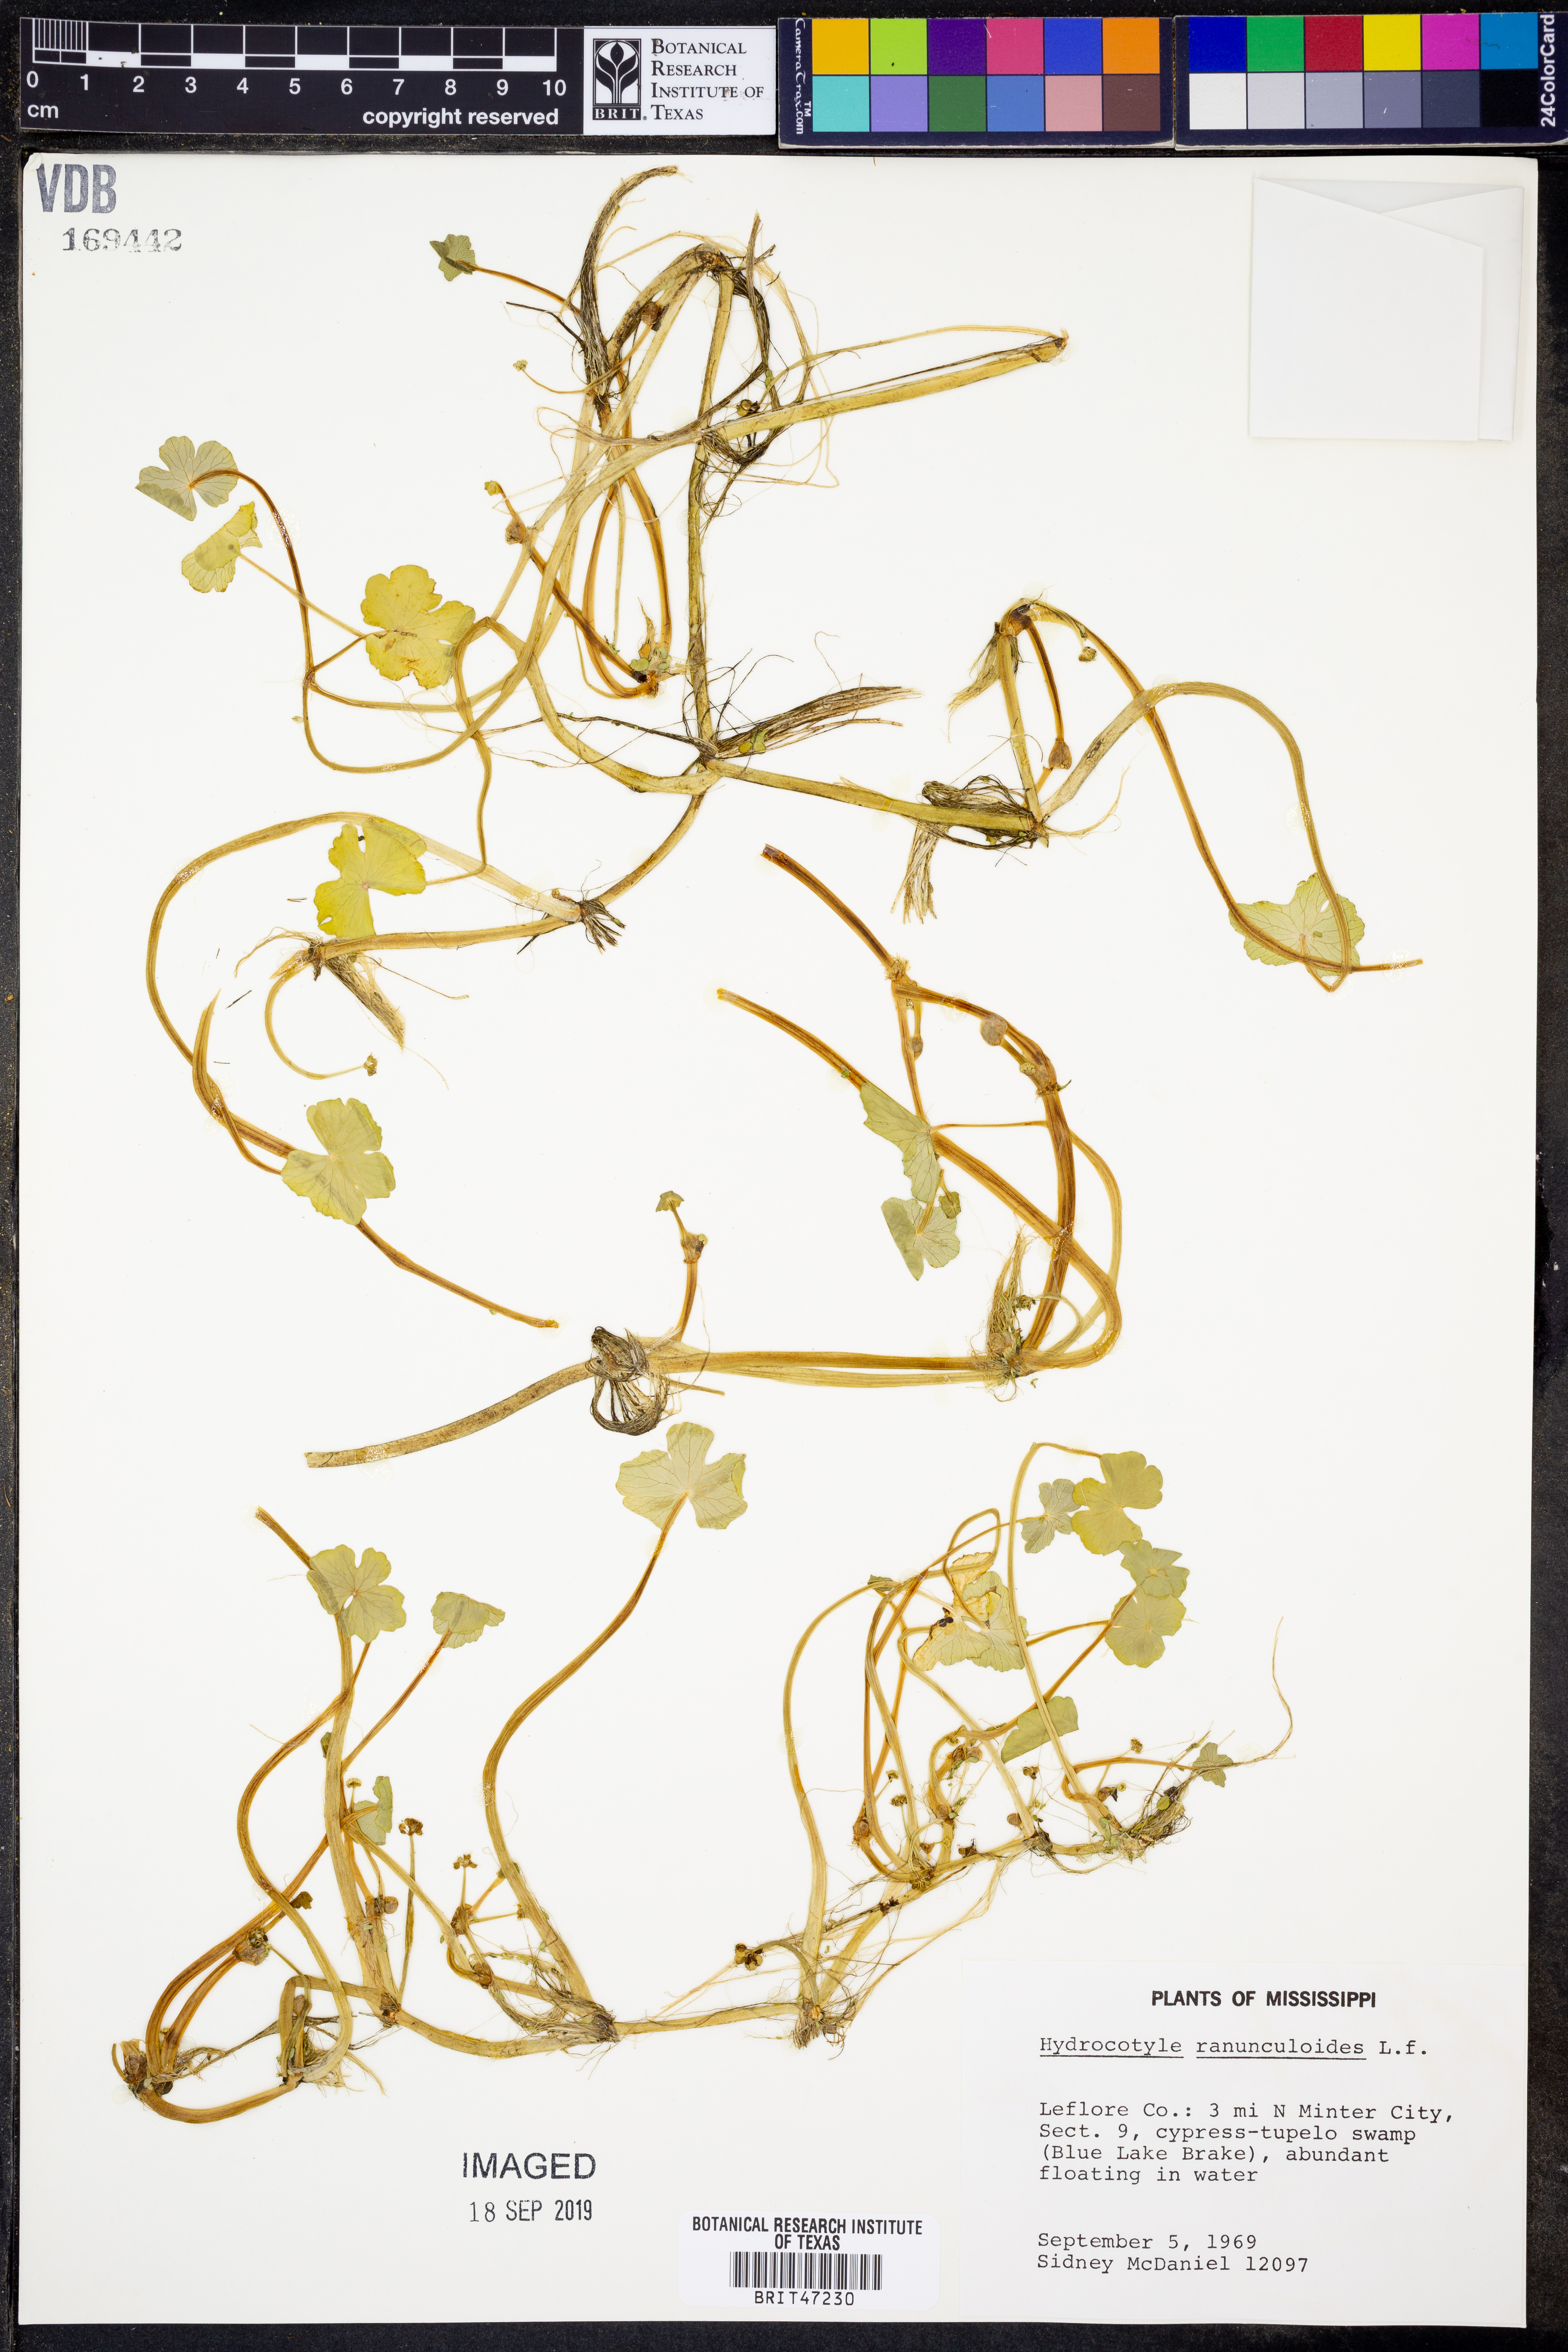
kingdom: Plantae
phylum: Tracheophyta
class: Magnoliopsida
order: Apiales
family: Araliaceae
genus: Hydrocotyle
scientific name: Hydrocotyle ranunculoides
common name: Floating pennywort
